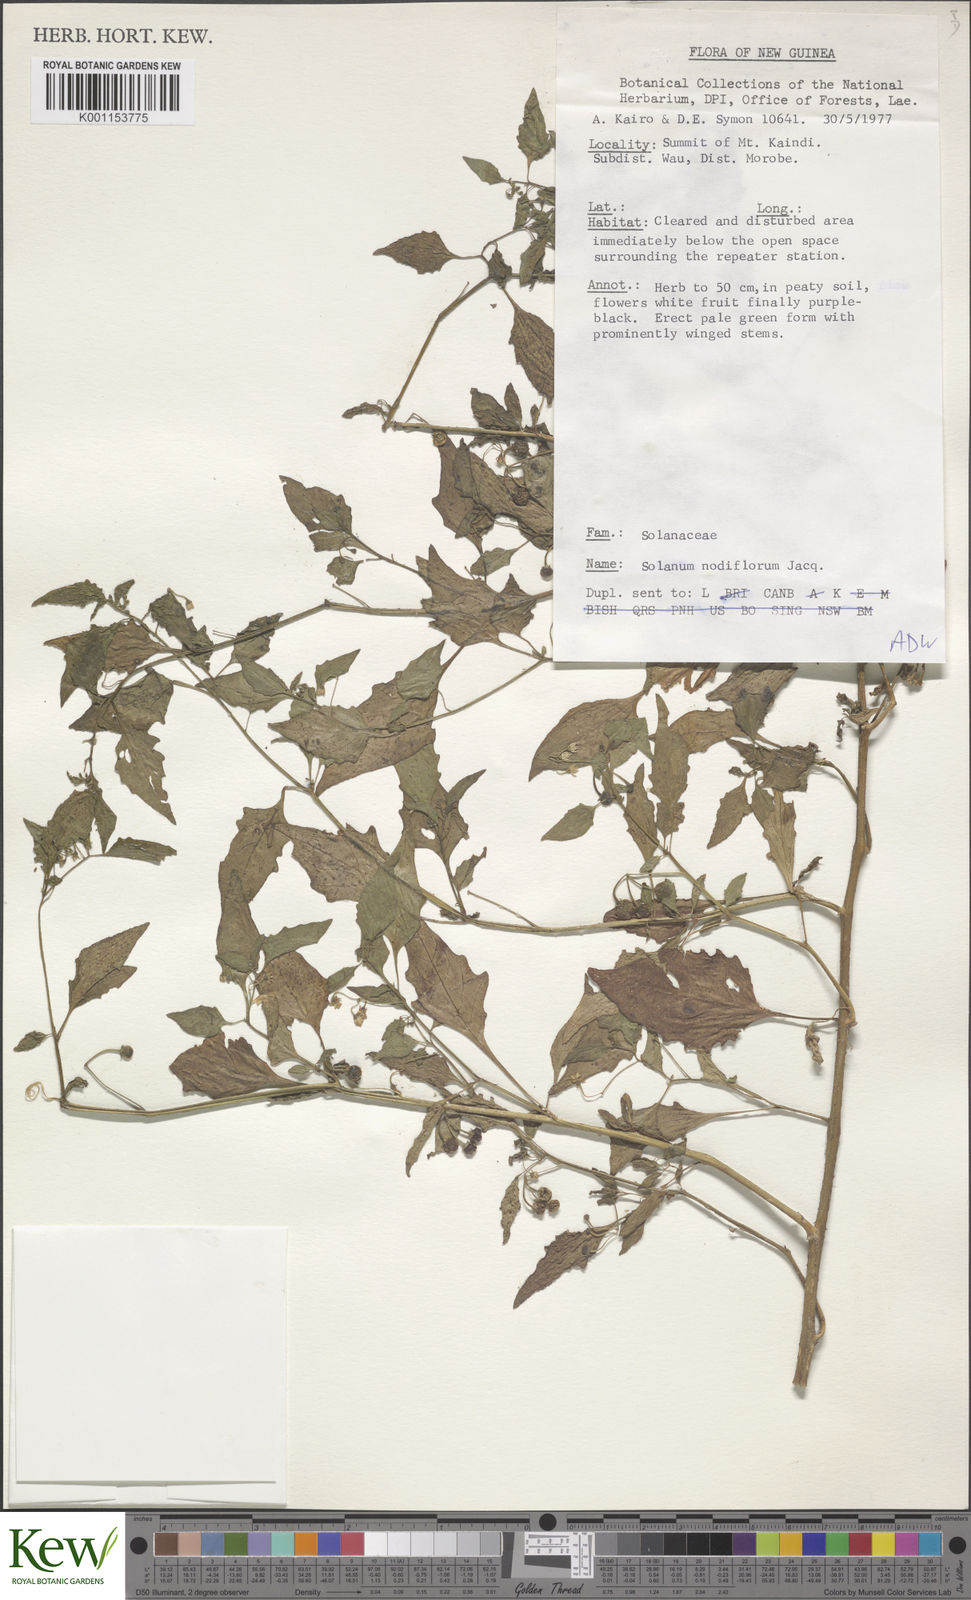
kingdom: Plantae
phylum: Tracheophyta
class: Magnoliopsida
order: Solanales
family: Solanaceae
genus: Solanum
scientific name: Solanum americanum
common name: American black nightshade
